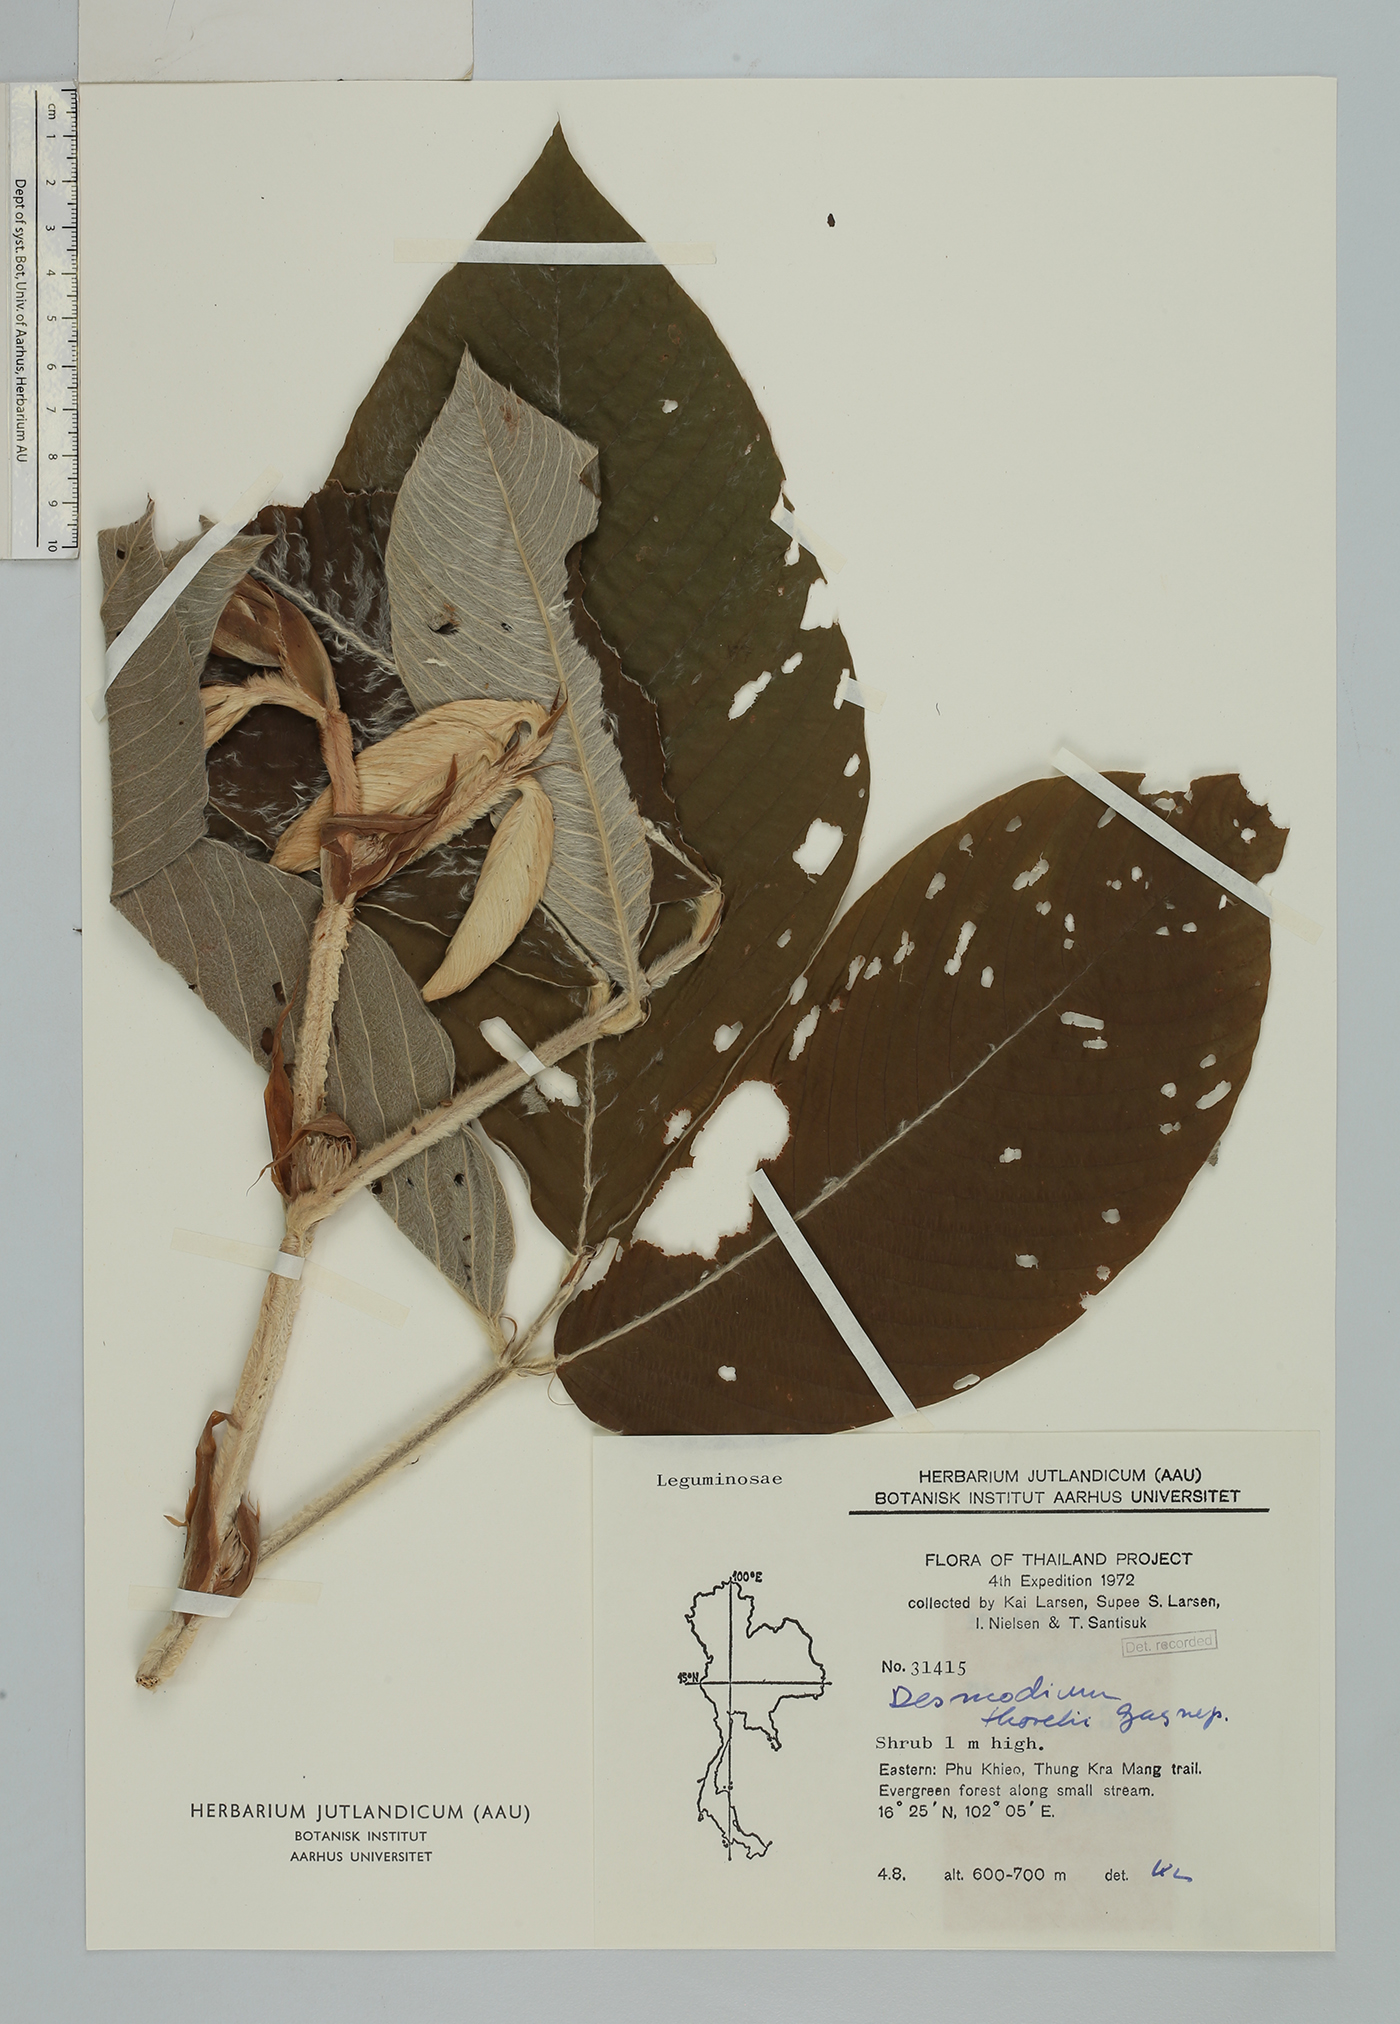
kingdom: Plantae
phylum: Tracheophyta
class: Magnoliopsida
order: Fabales
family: Fabaceae
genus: Dendrolobium
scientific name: Dendrolobium thorelii
